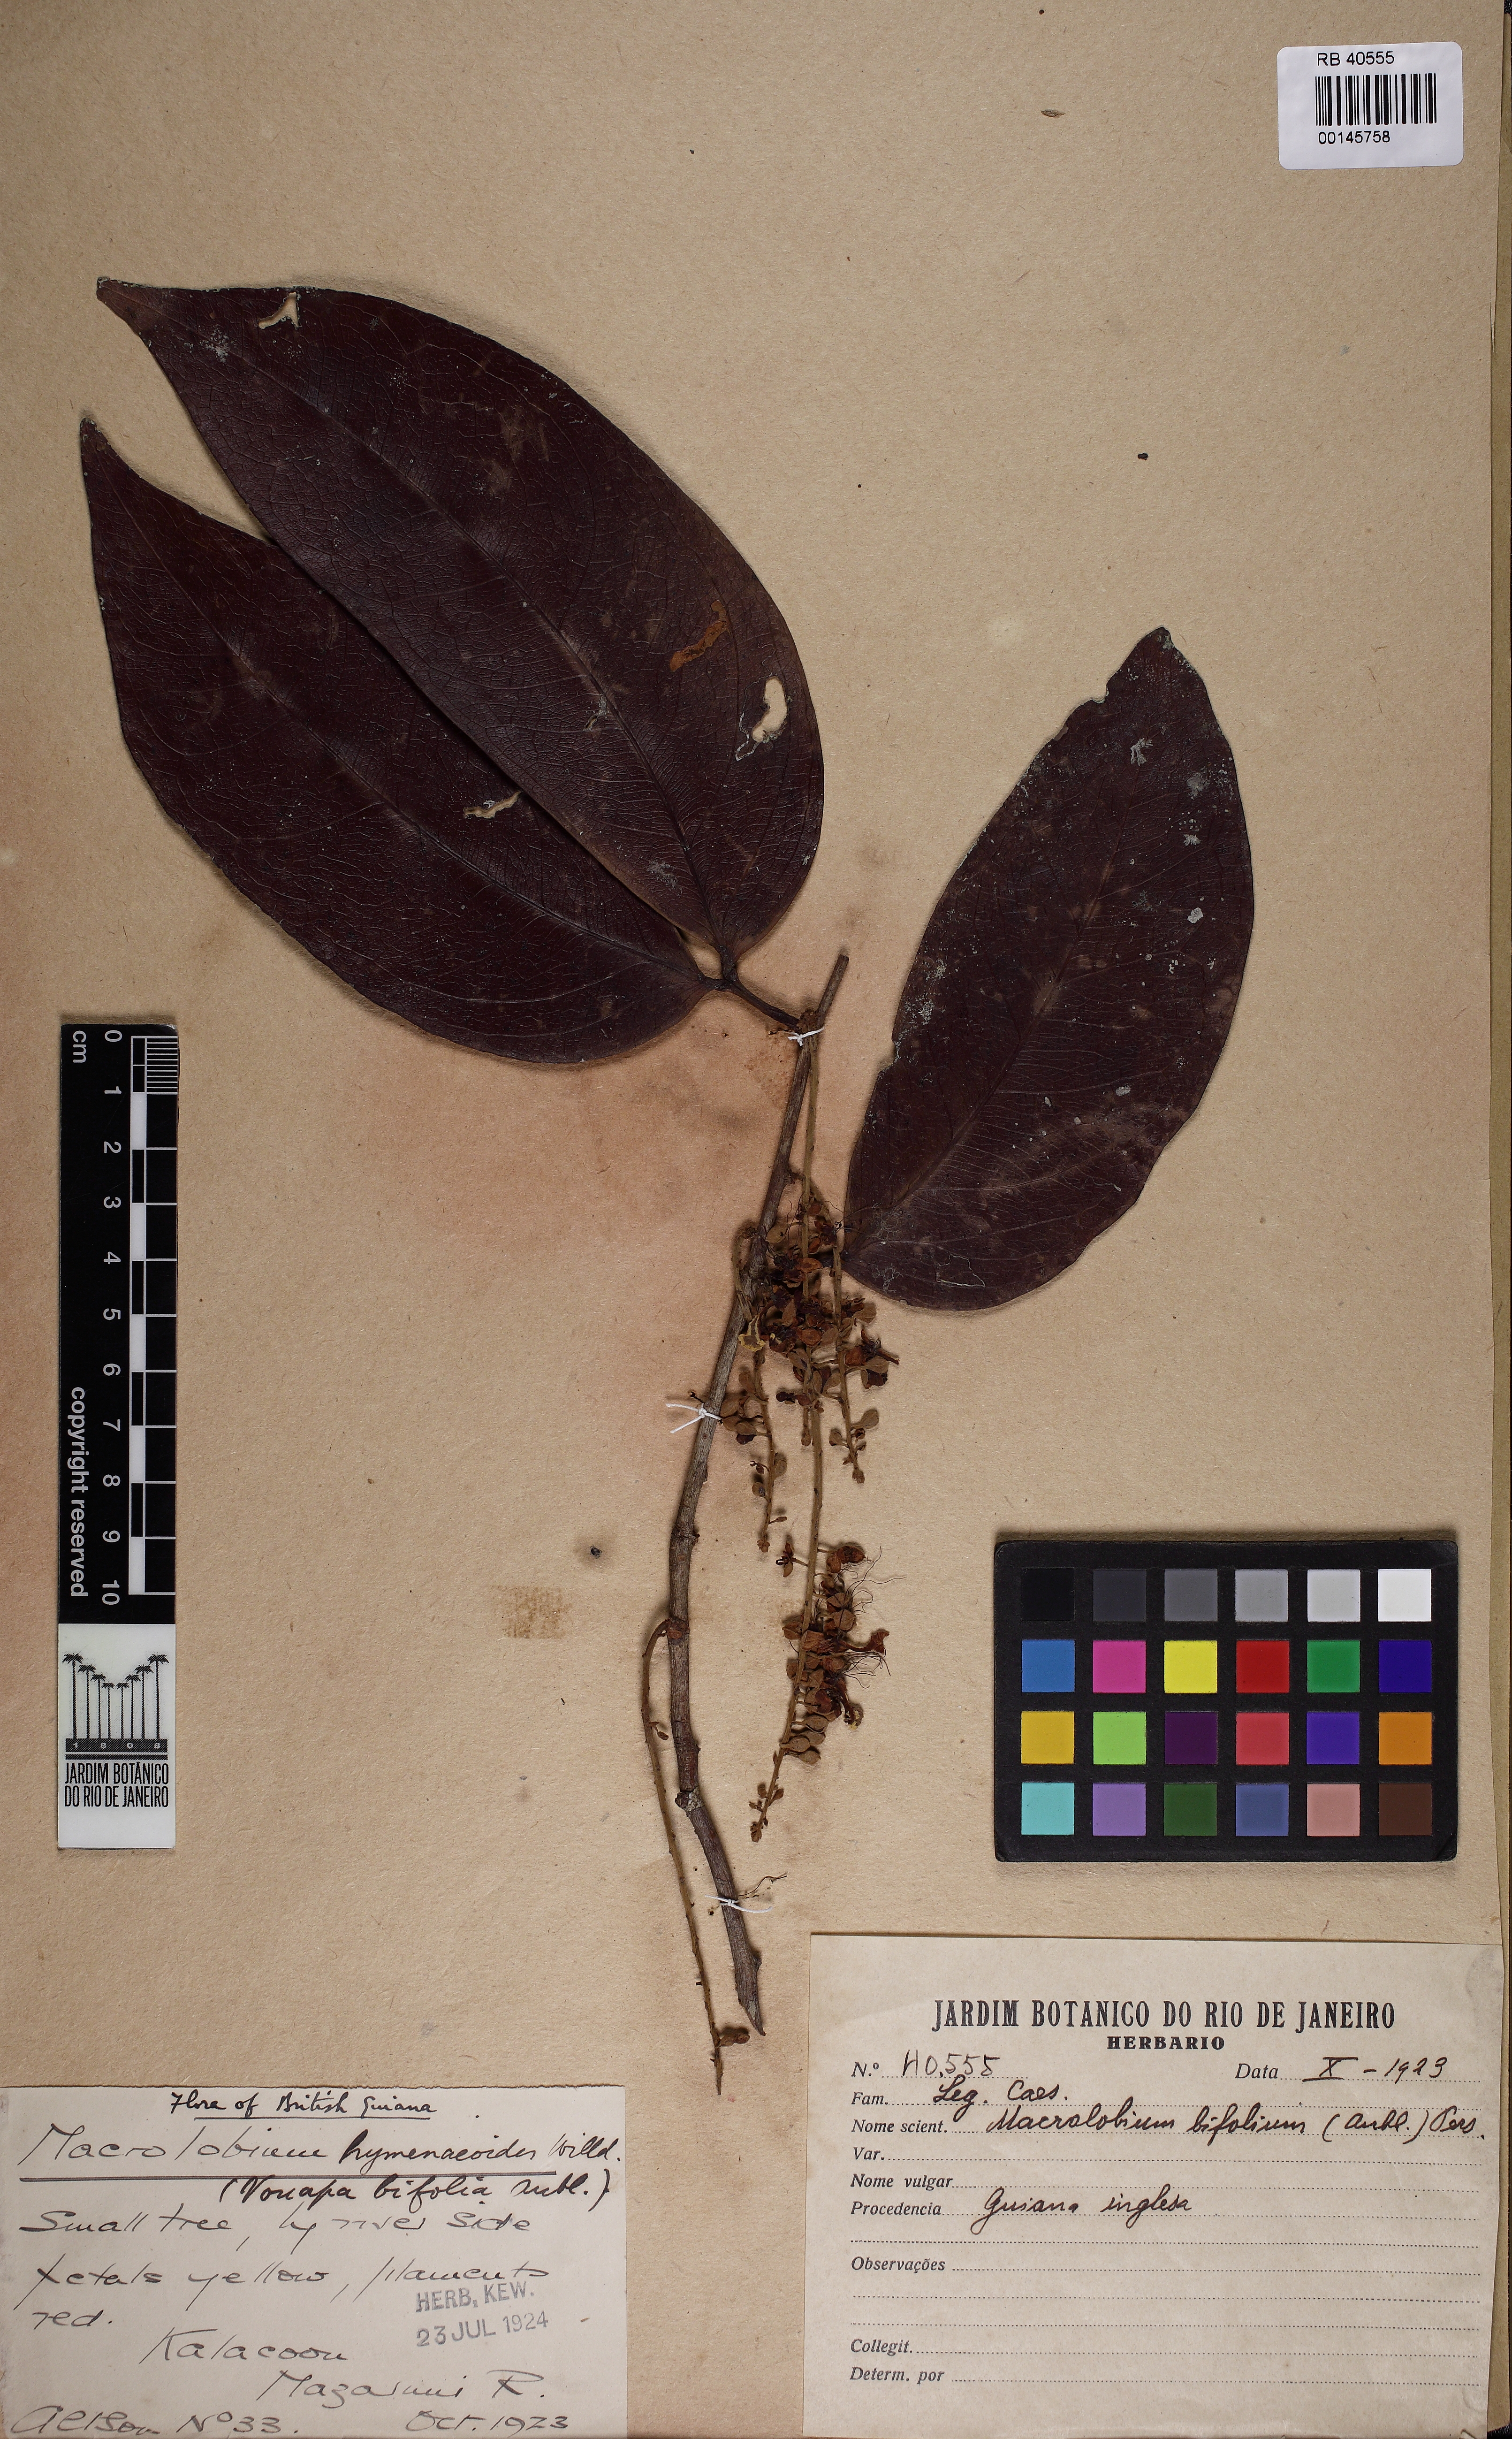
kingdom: Plantae
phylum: Tracheophyta
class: Magnoliopsida
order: Fabales
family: Fabaceae
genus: Macrolobium
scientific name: Macrolobium bifolium
